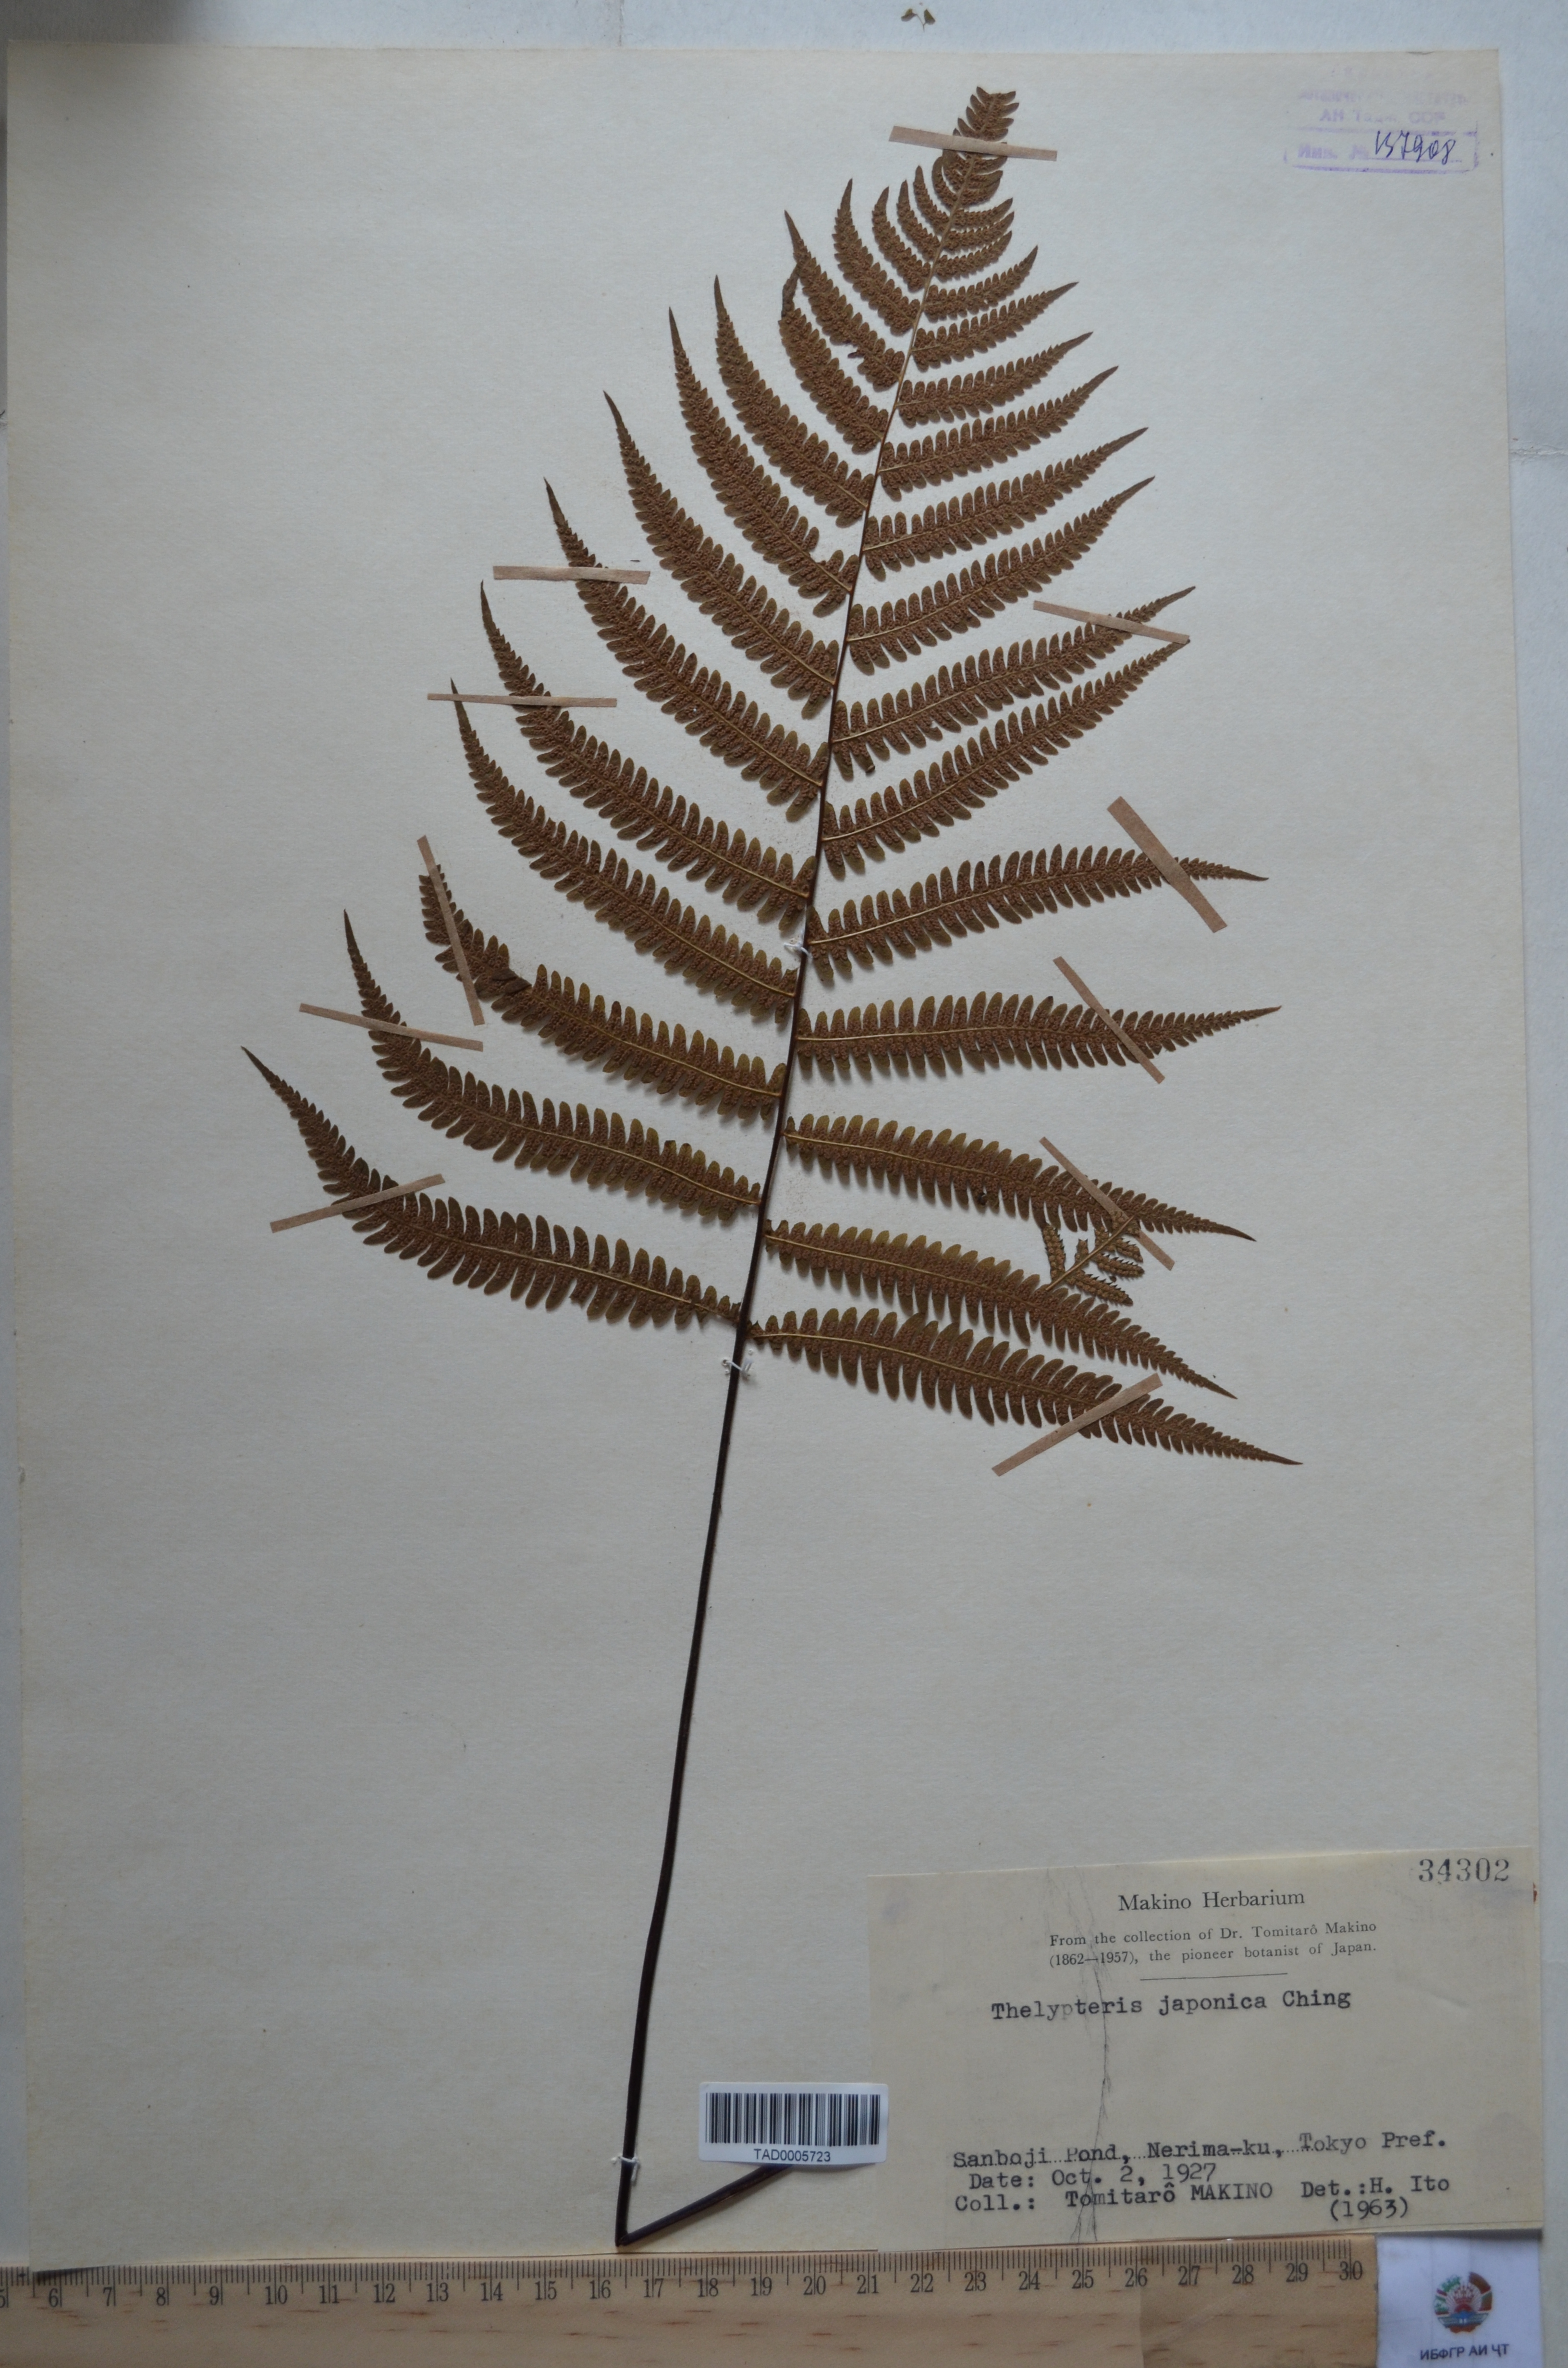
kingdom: Plantae
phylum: Tracheophyta
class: Polypodiopsida
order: Polypodiales
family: Thelypteridaceae
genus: Coryphopteris
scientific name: Coryphopteris japonica
